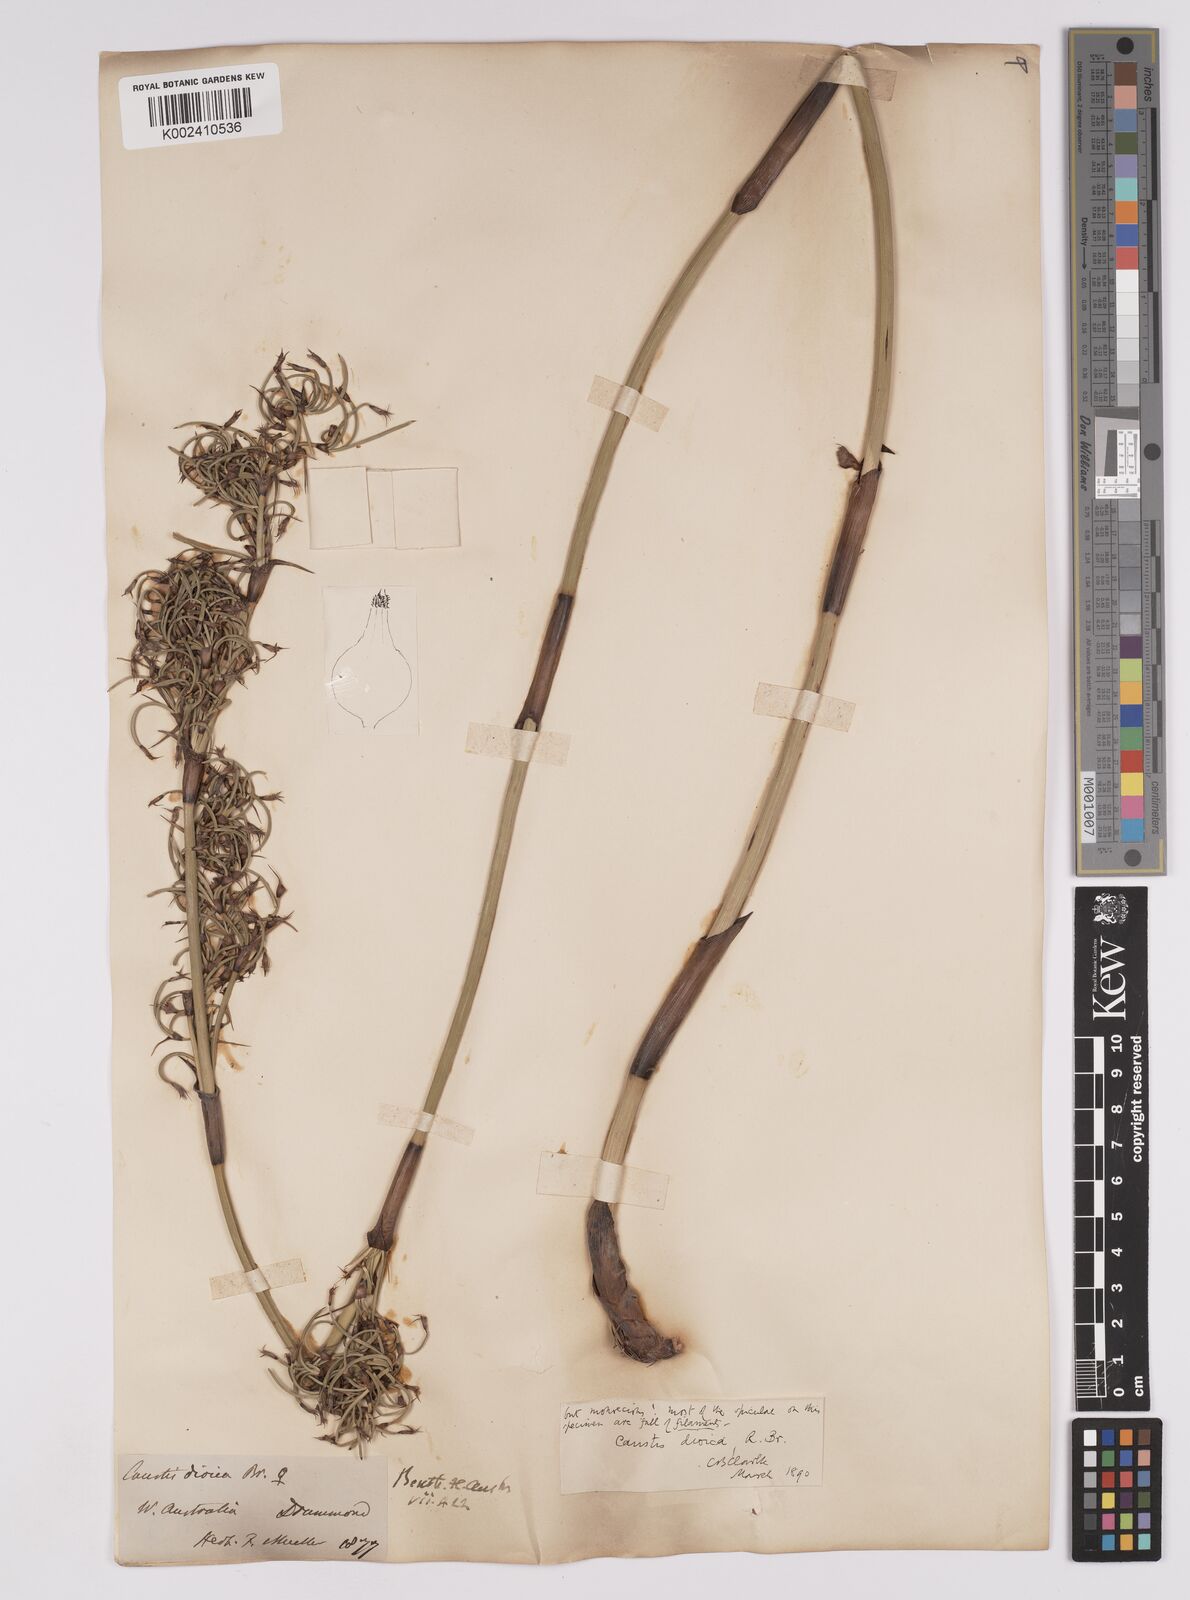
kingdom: Plantae
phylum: Tracheophyta
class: Liliopsida
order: Poales
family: Cyperaceae
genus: Caustis
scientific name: Caustis dioica
